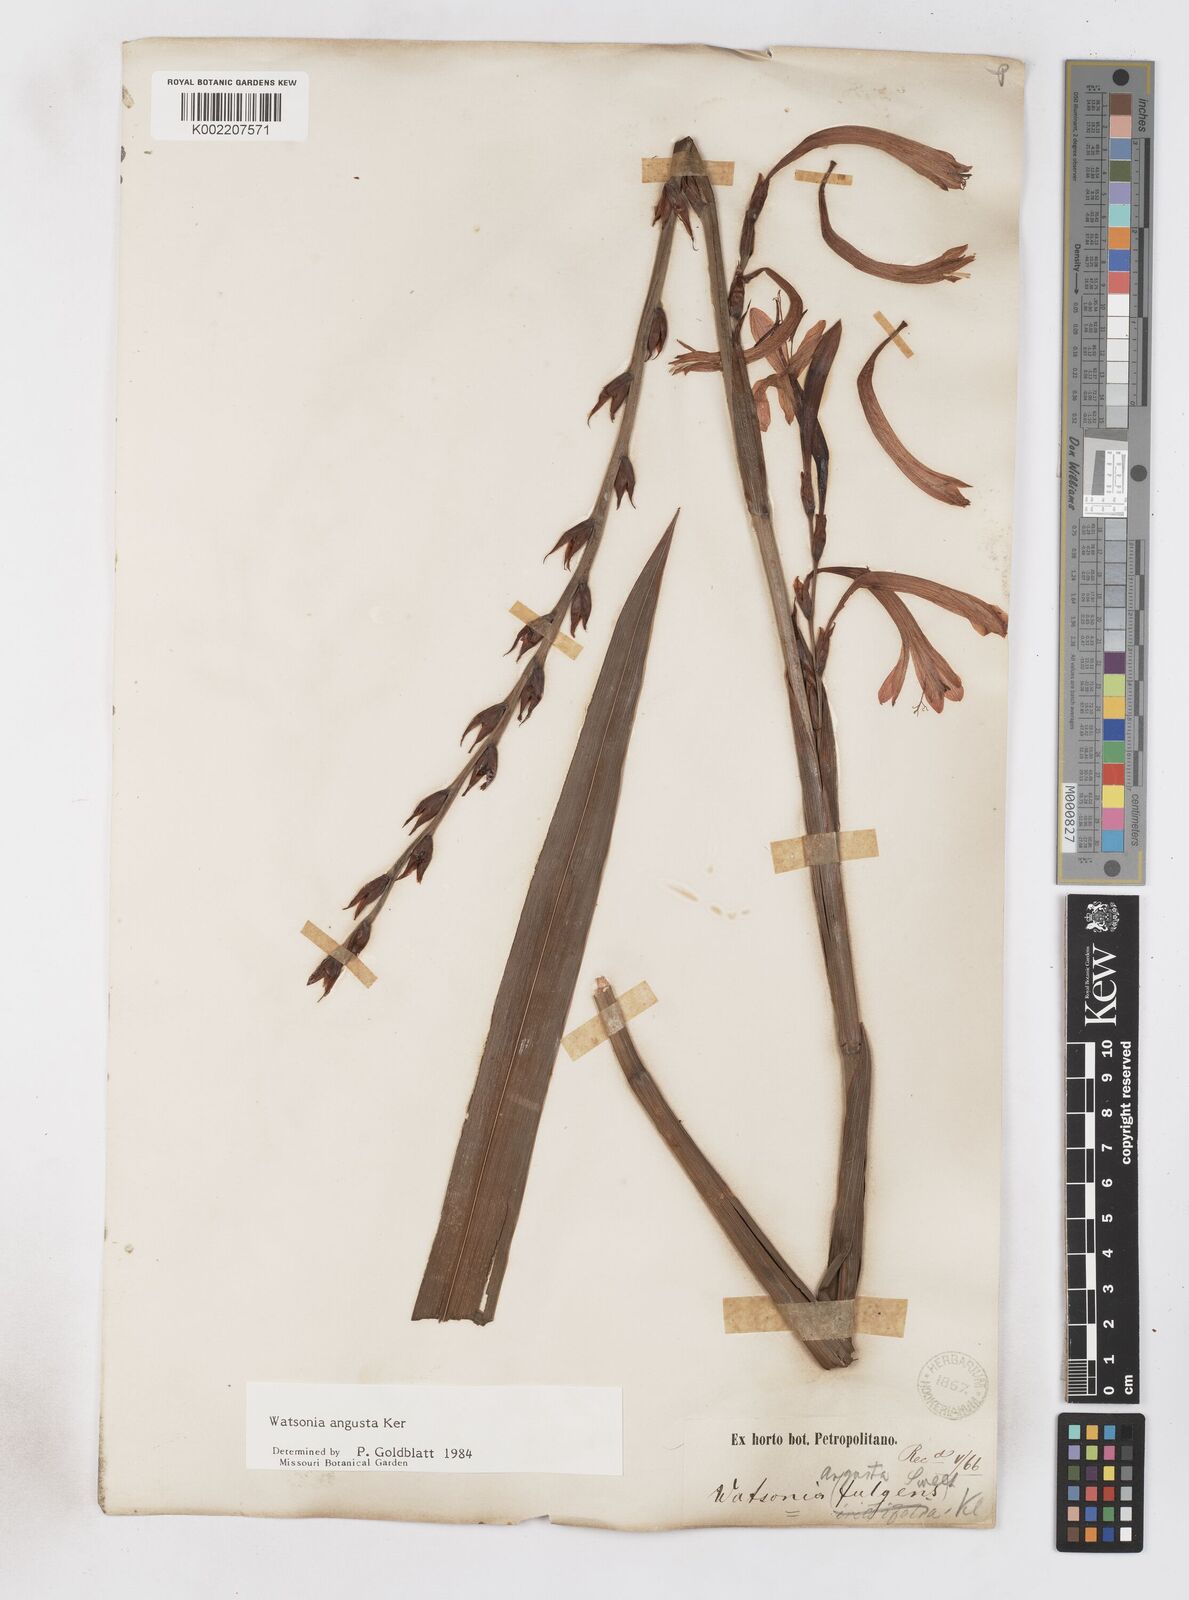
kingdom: Plantae
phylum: Tracheophyta
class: Liliopsida
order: Asparagales
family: Iridaceae
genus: Watsonia
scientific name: Watsonia angusta
